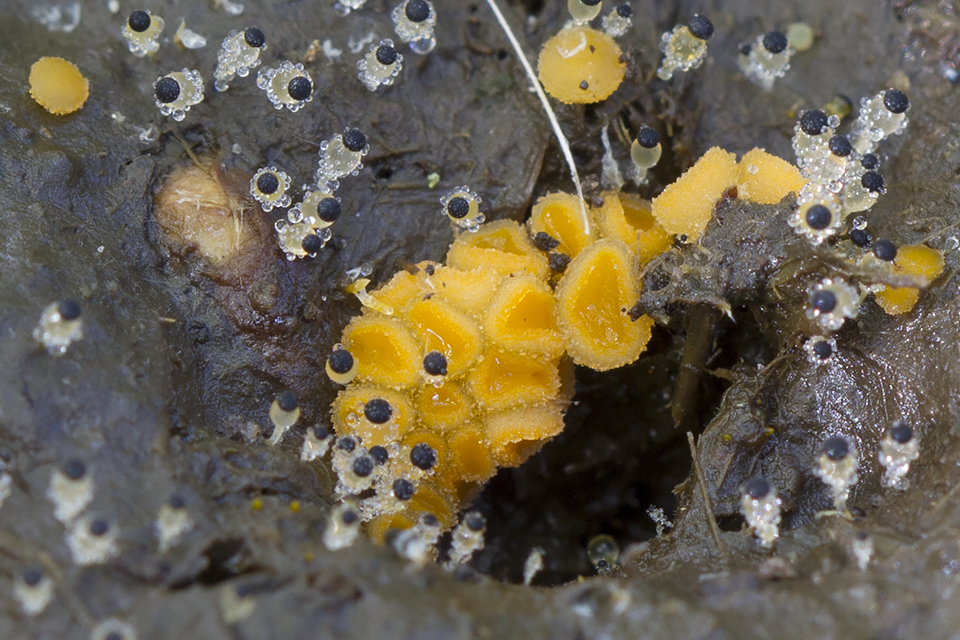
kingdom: Fungi
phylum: Mucoromycota
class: Mucoromycetes
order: Mucorales
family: Pilobolaceae
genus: Pilobolus
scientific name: Pilobolus kleinii
